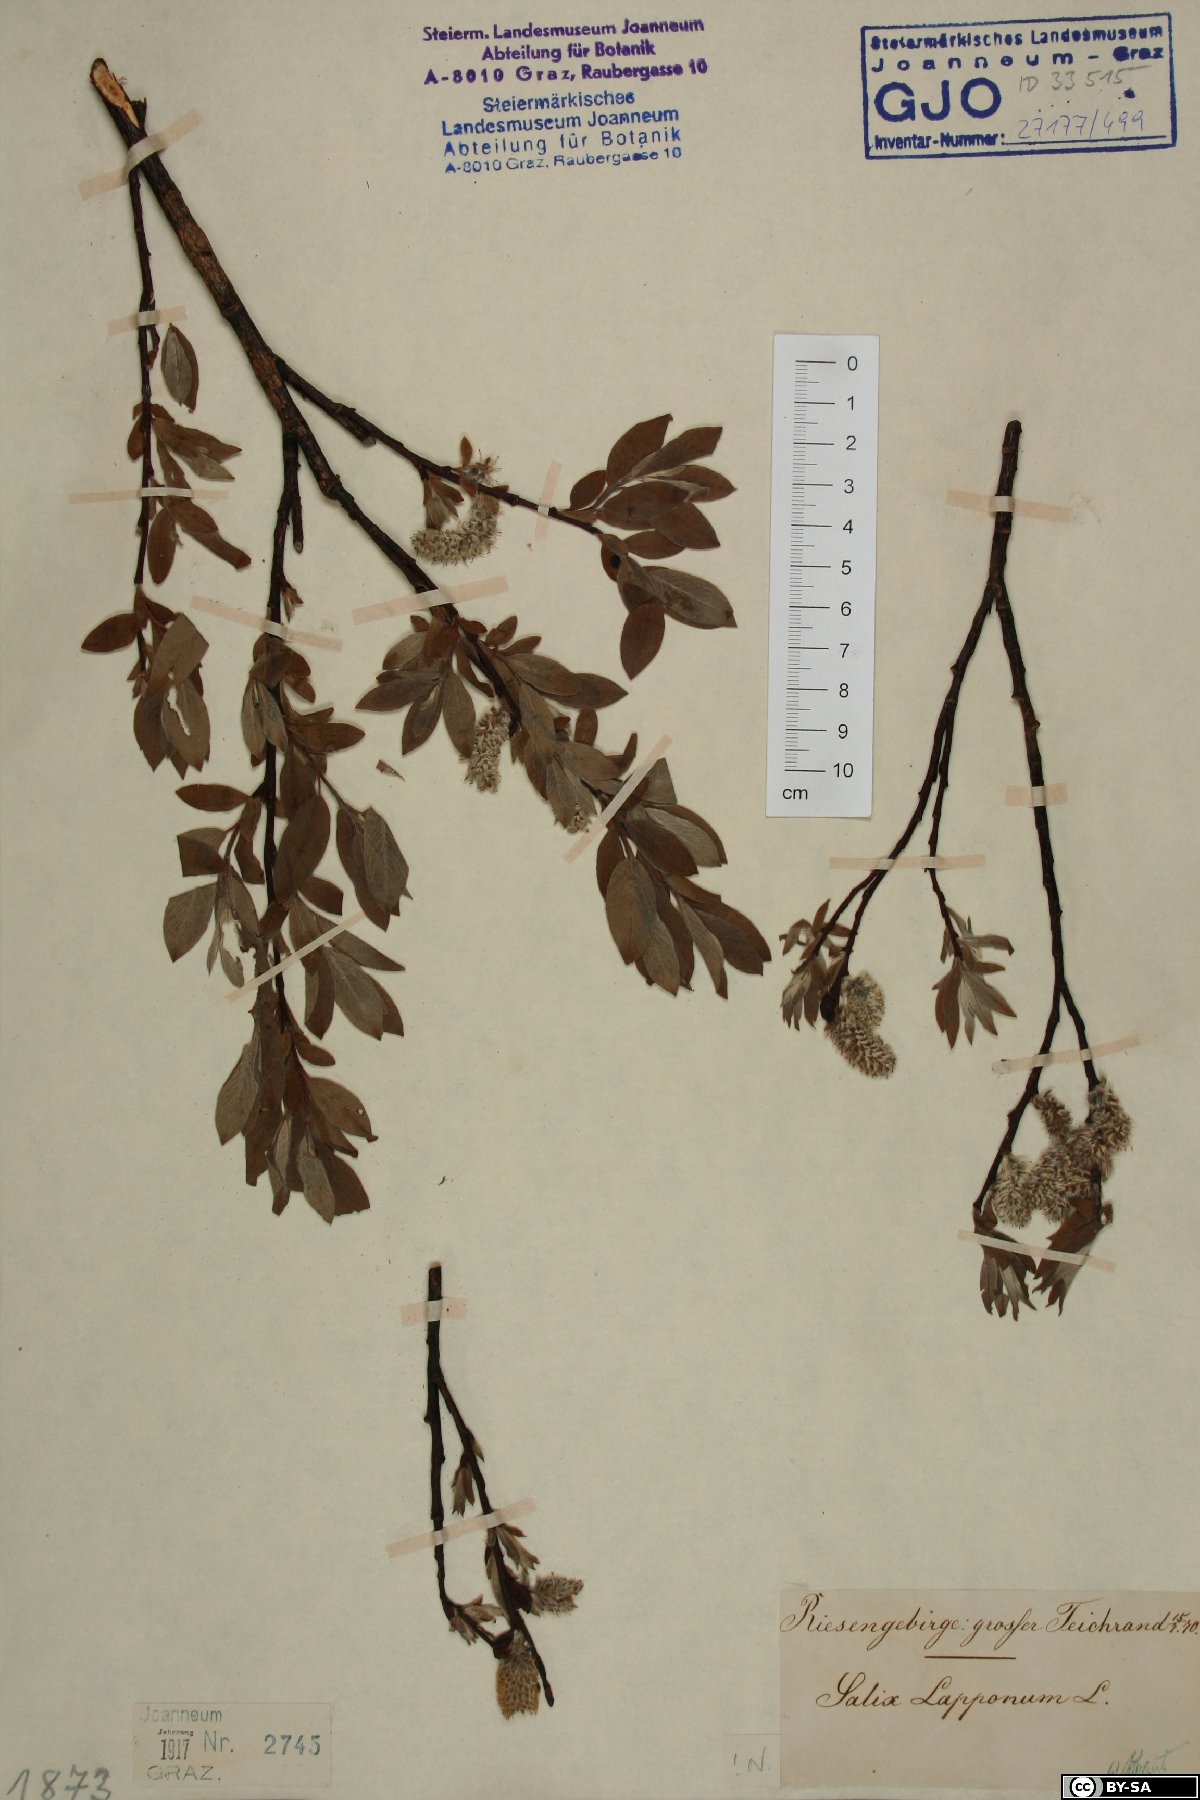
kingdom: Plantae
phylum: Tracheophyta
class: Magnoliopsida
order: Malpighiales
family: Salicaceae
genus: Salix
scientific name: Salix lapponum
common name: Downy willow
